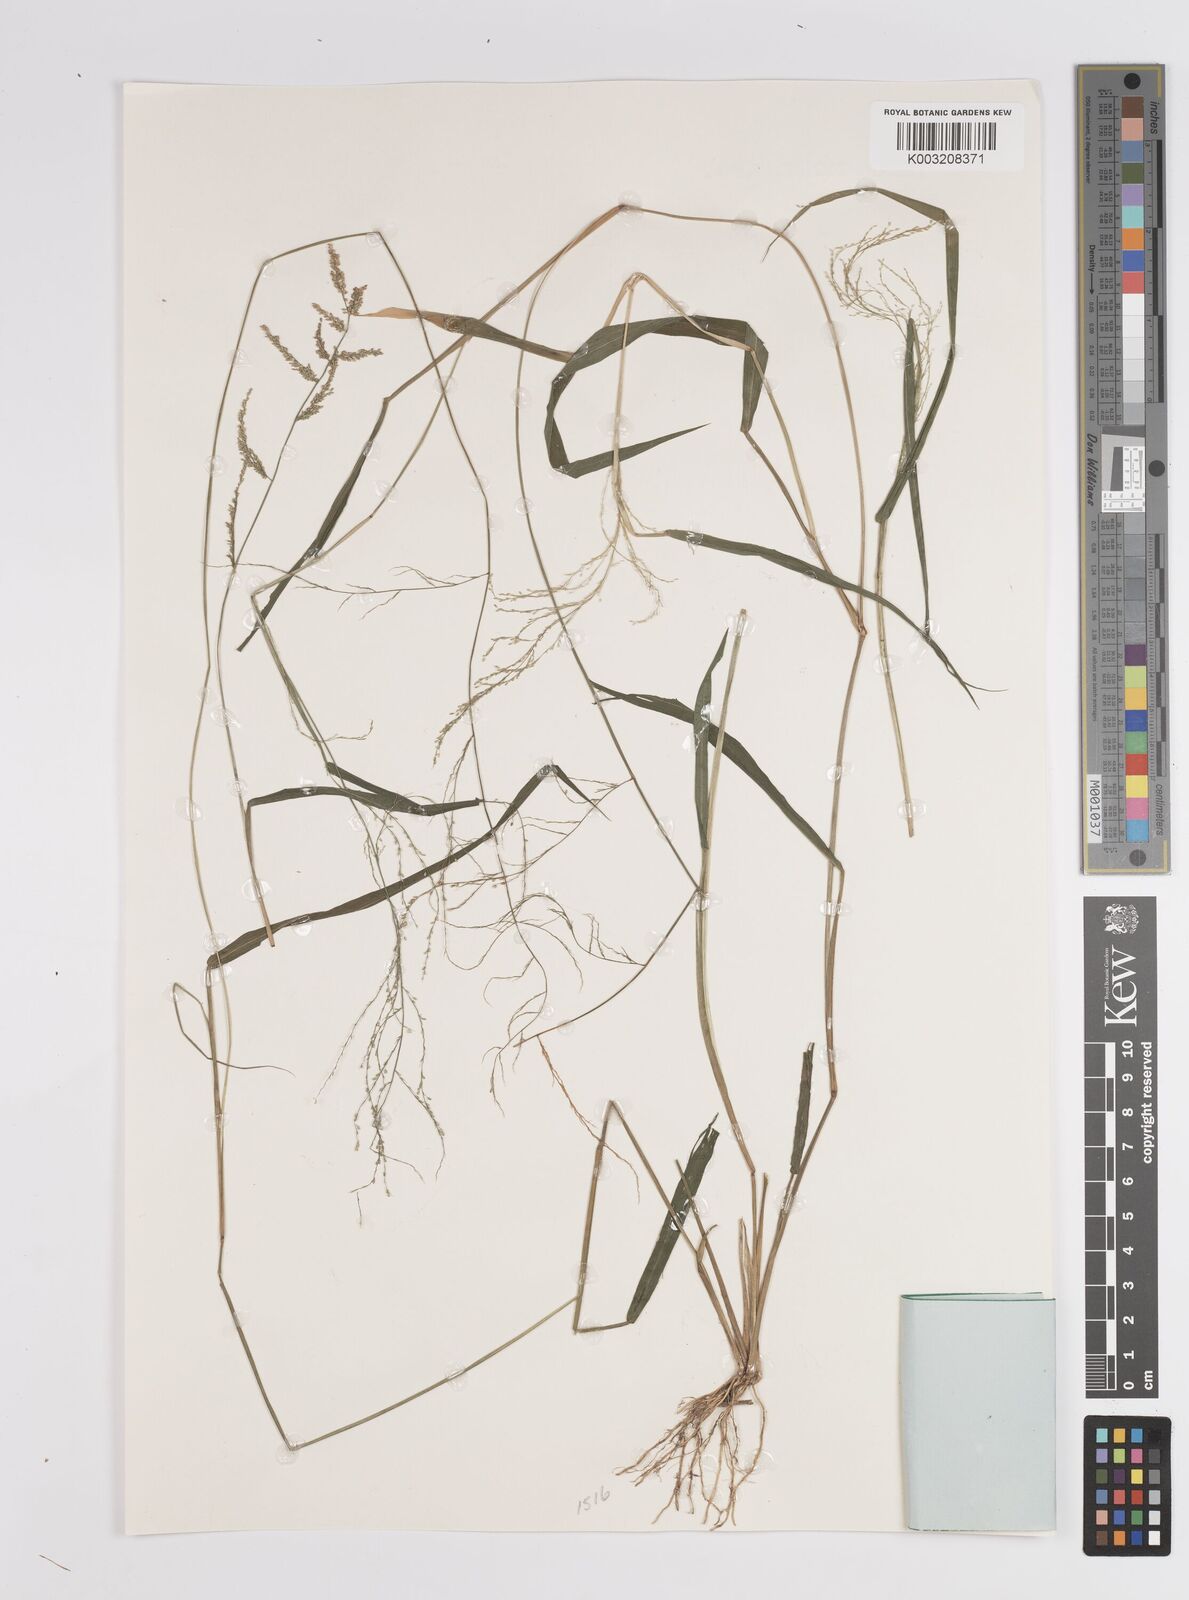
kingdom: Plantae
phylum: Tracheophyta
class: Liliopsida
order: Poales
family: Poaceae
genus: Steinchisma
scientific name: Steinchisma laxum
